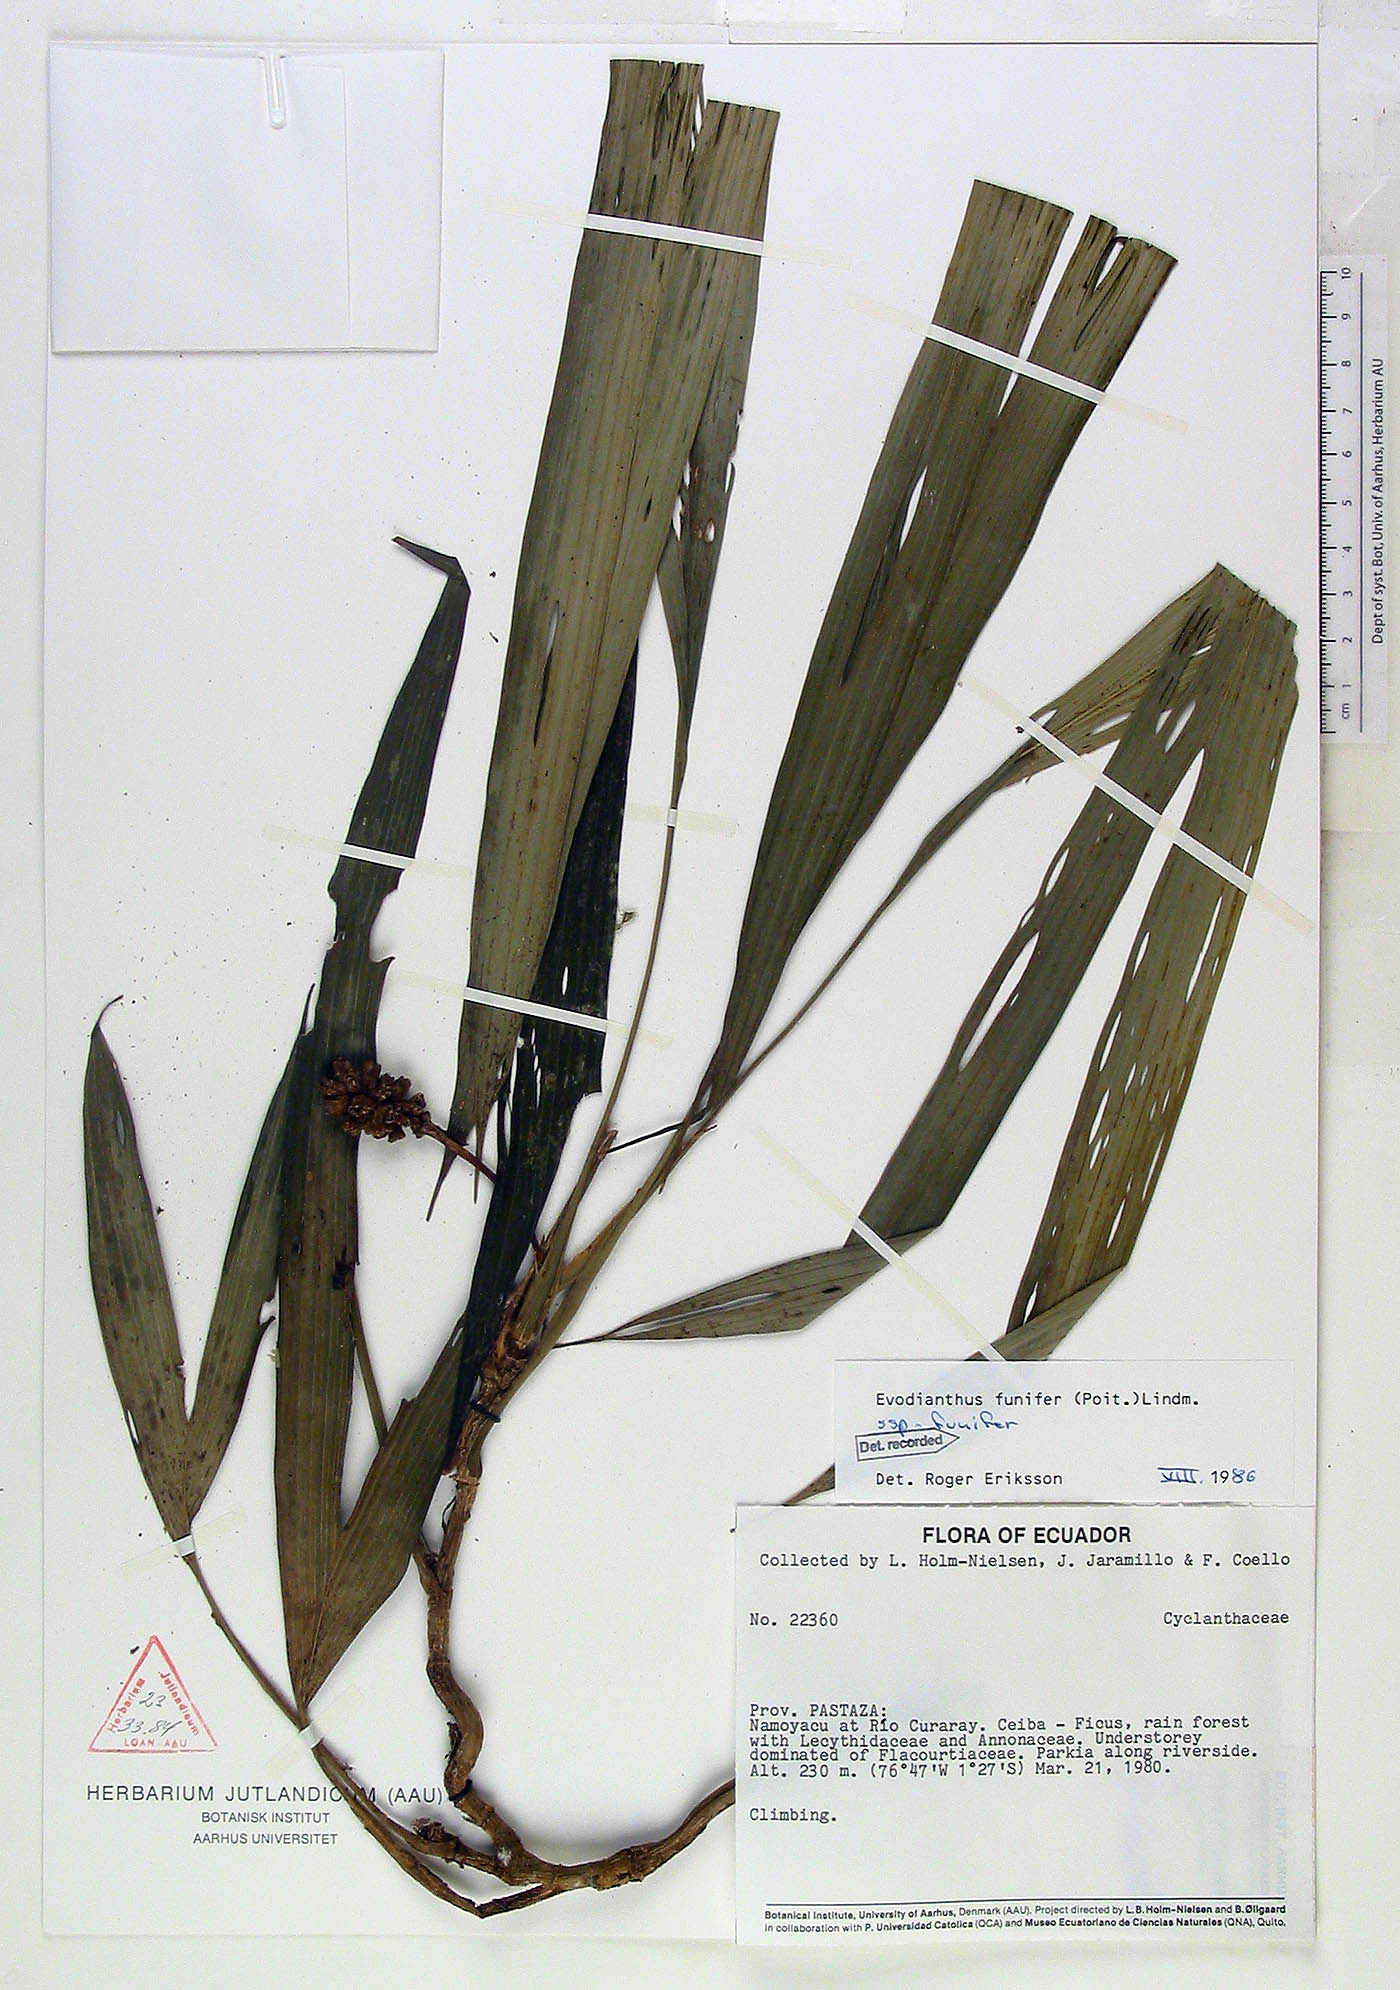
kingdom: Plantae
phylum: Tracheophyta
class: Liliopsida
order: Pandanales
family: Cyclanthaceae
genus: Evodianthus
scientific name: Evodianthus funifer
